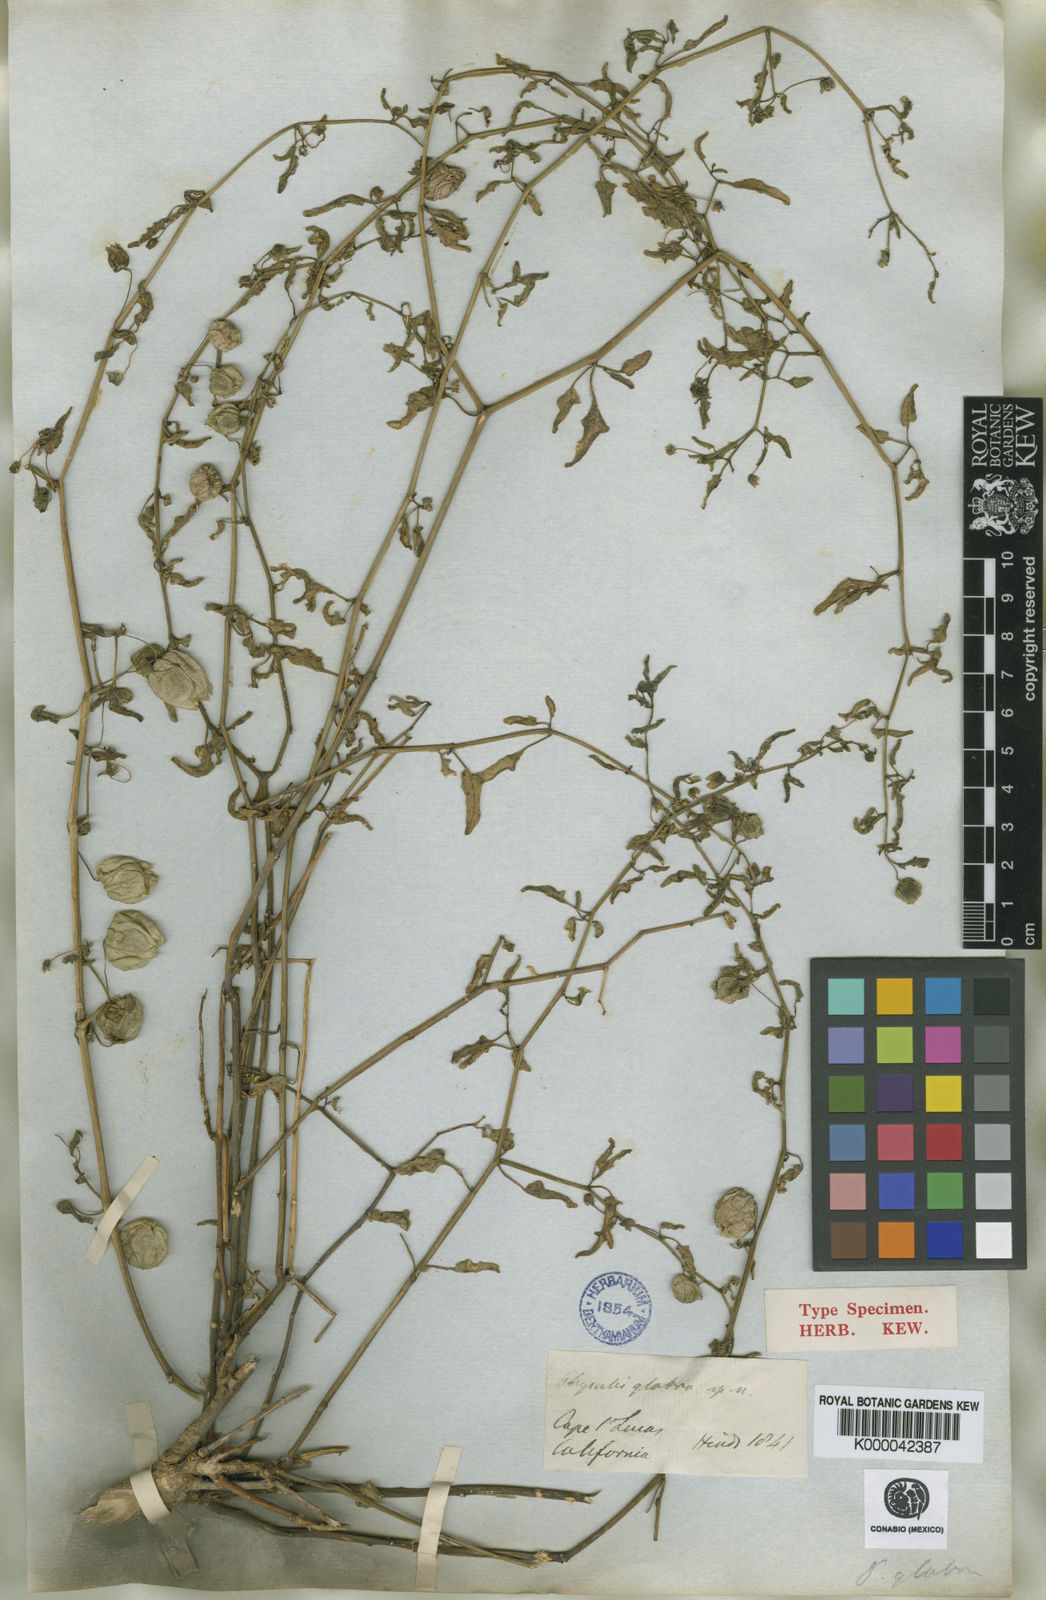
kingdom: Plantae
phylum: Tracheophyta
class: Magnoliopsida
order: Solanales
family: Solanaceae
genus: Physalis
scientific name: Physalis glabra
